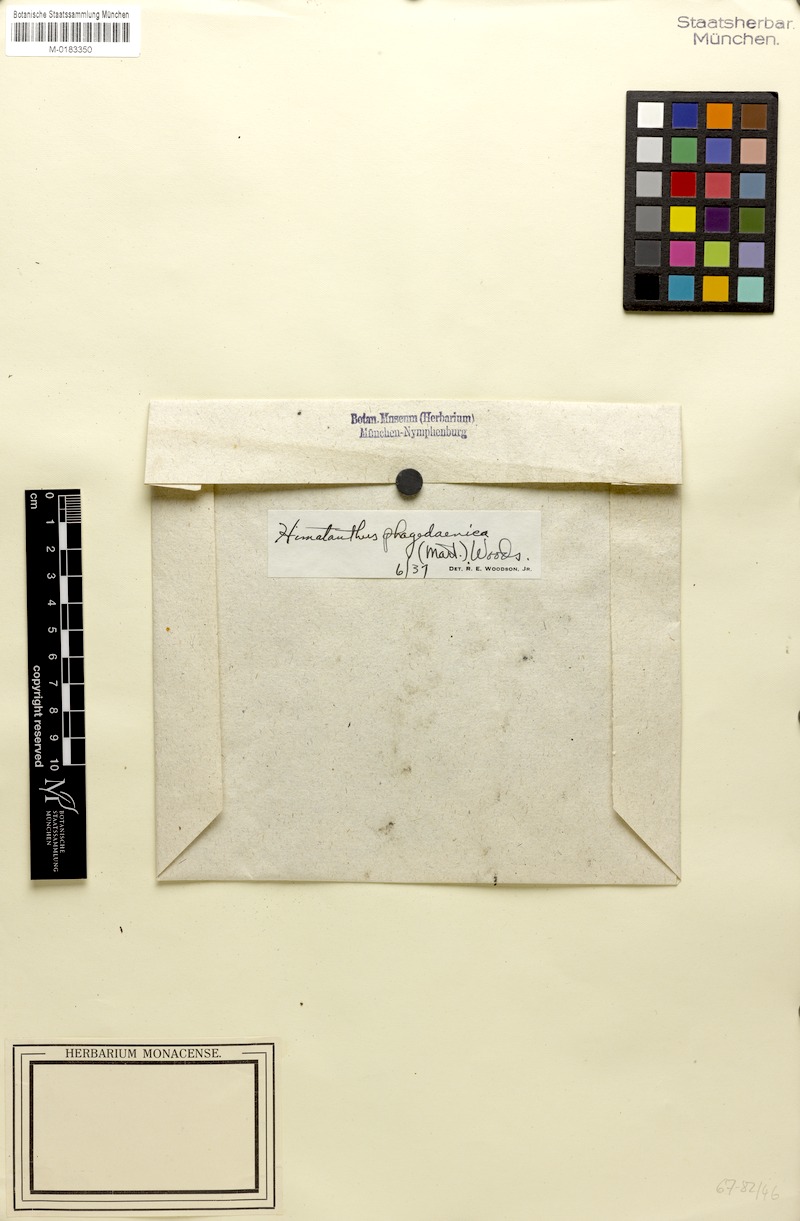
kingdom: Plantae
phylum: Tracheophyta
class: Magnoliopsida
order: Gentianales
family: Apocynaceae
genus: Himatanthus
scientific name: Himatanthus phagedaenicus
